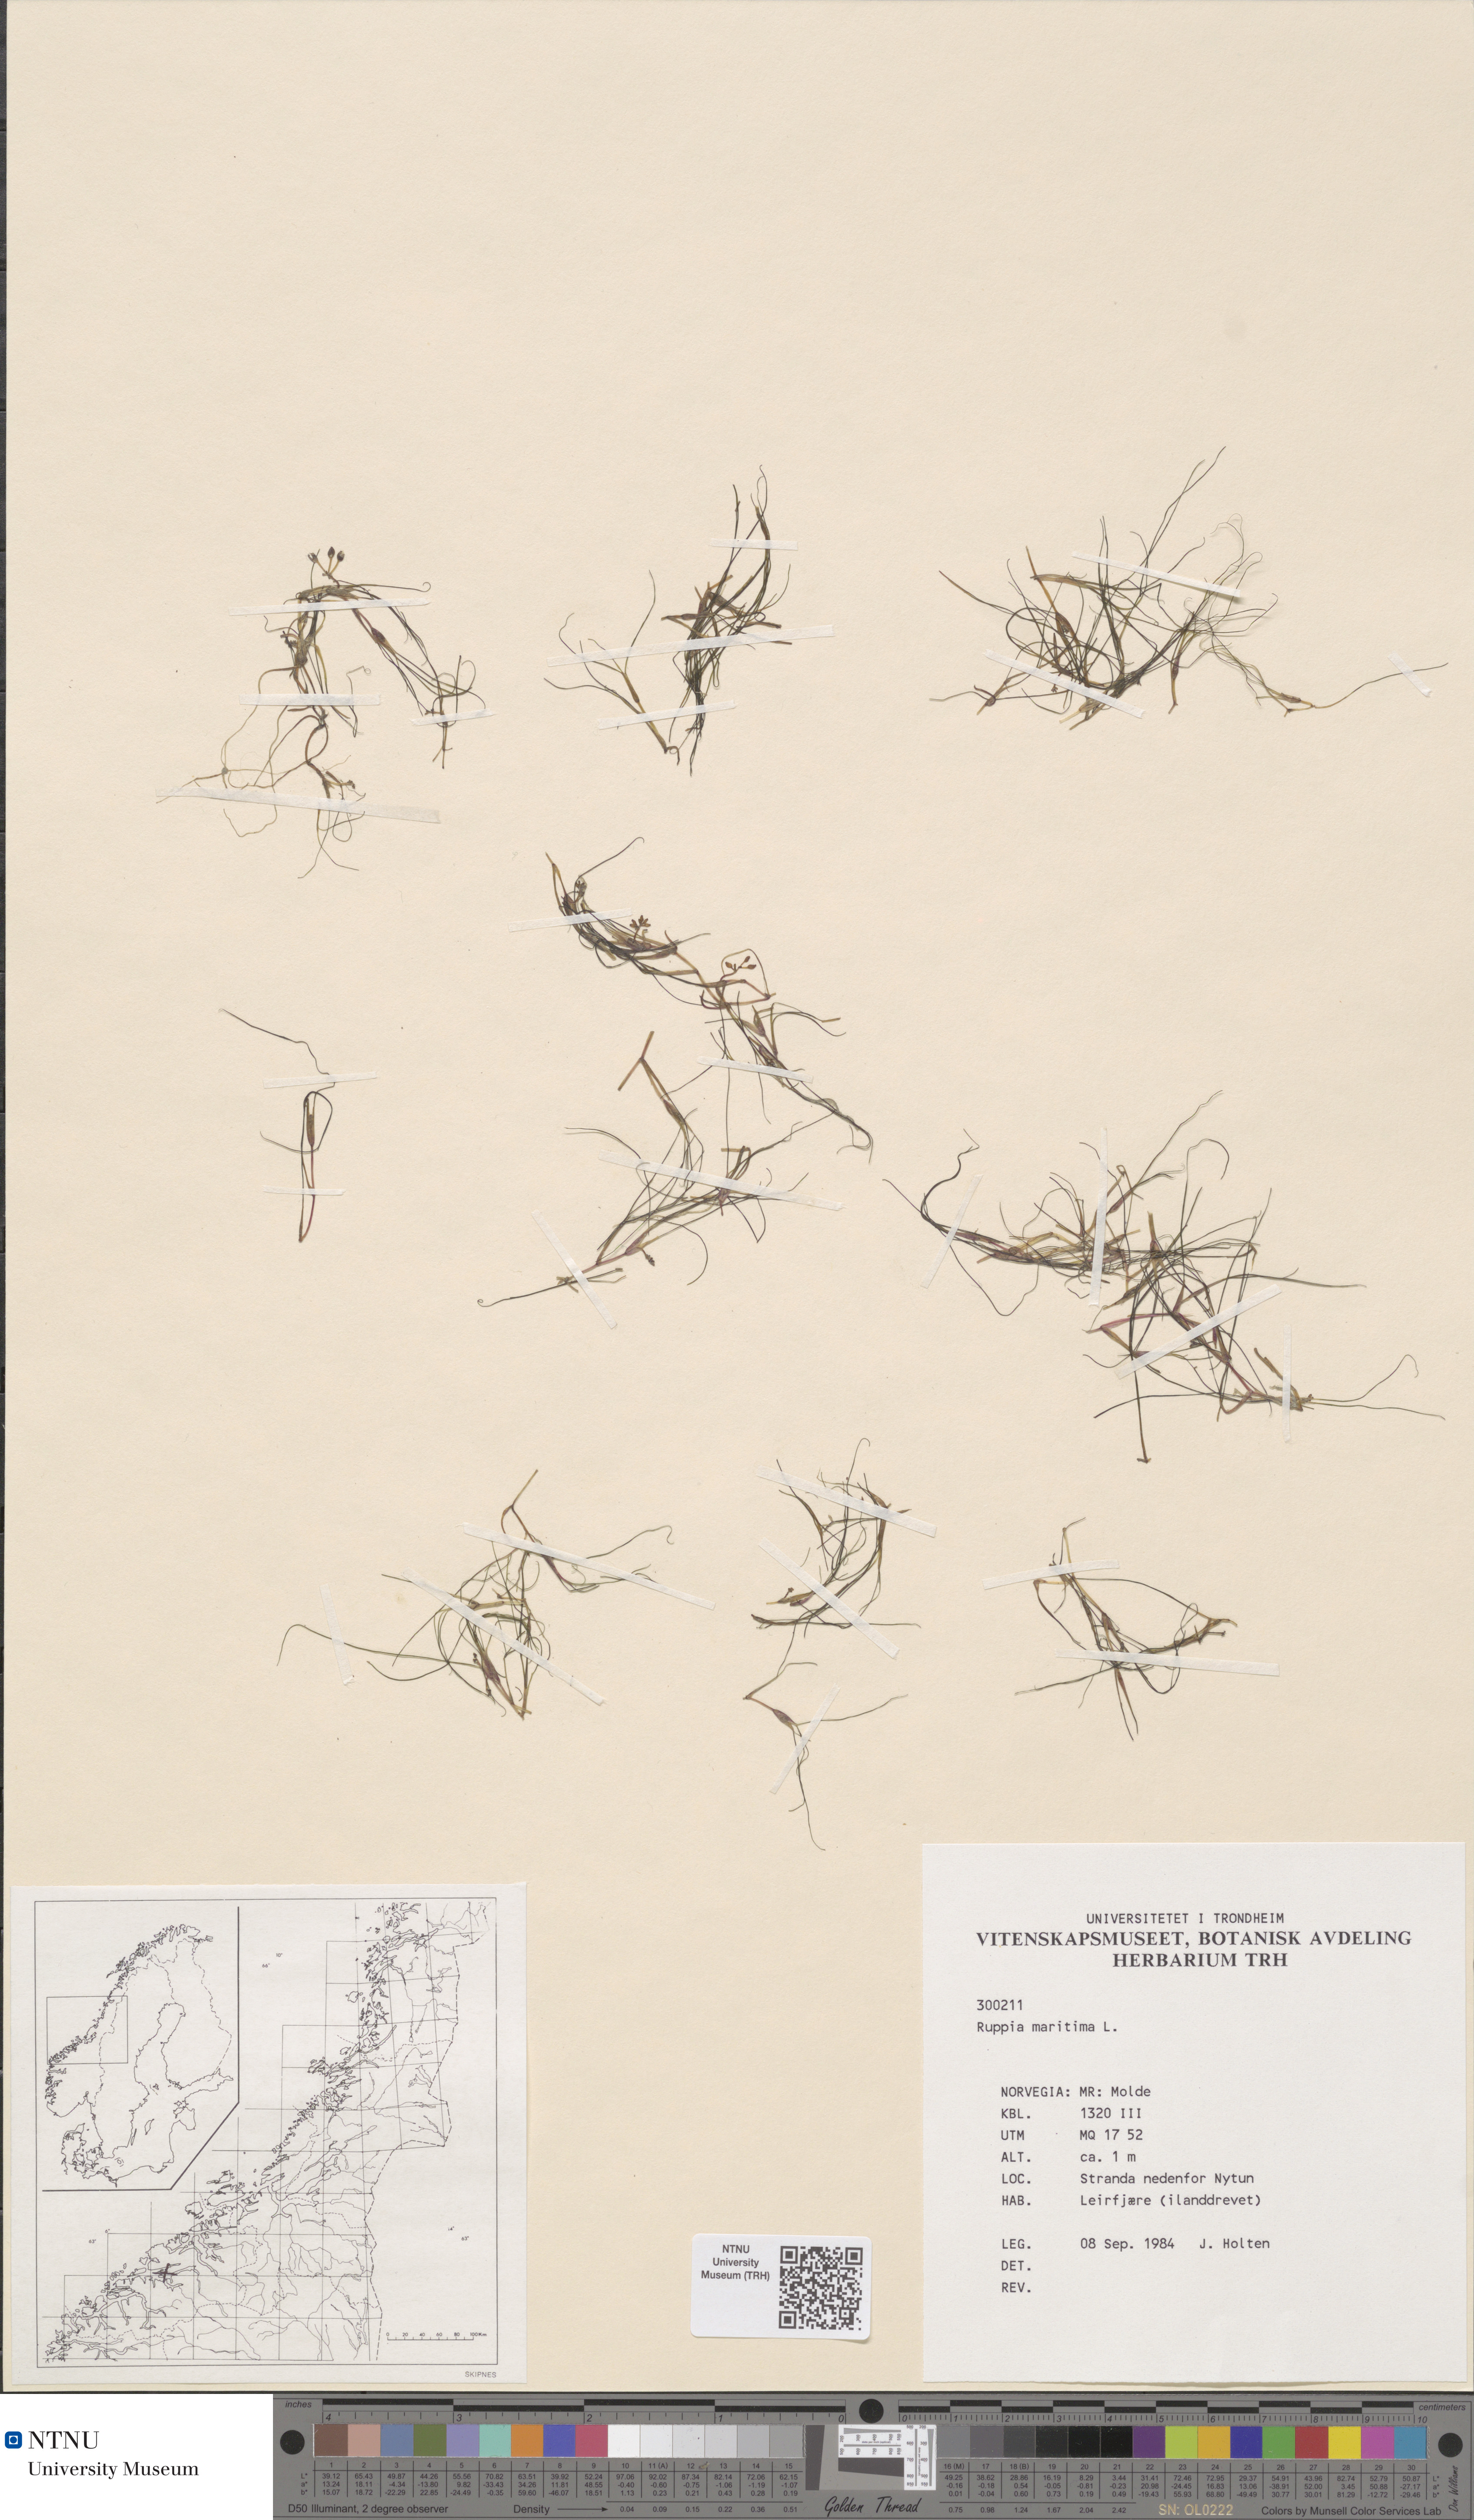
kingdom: Plantae
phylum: Tracheophyta
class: Liliopsida
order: Alismatales
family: Ruppiaceae
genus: Ruppia
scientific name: Ruppia maritima
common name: Beaked tasselweed
